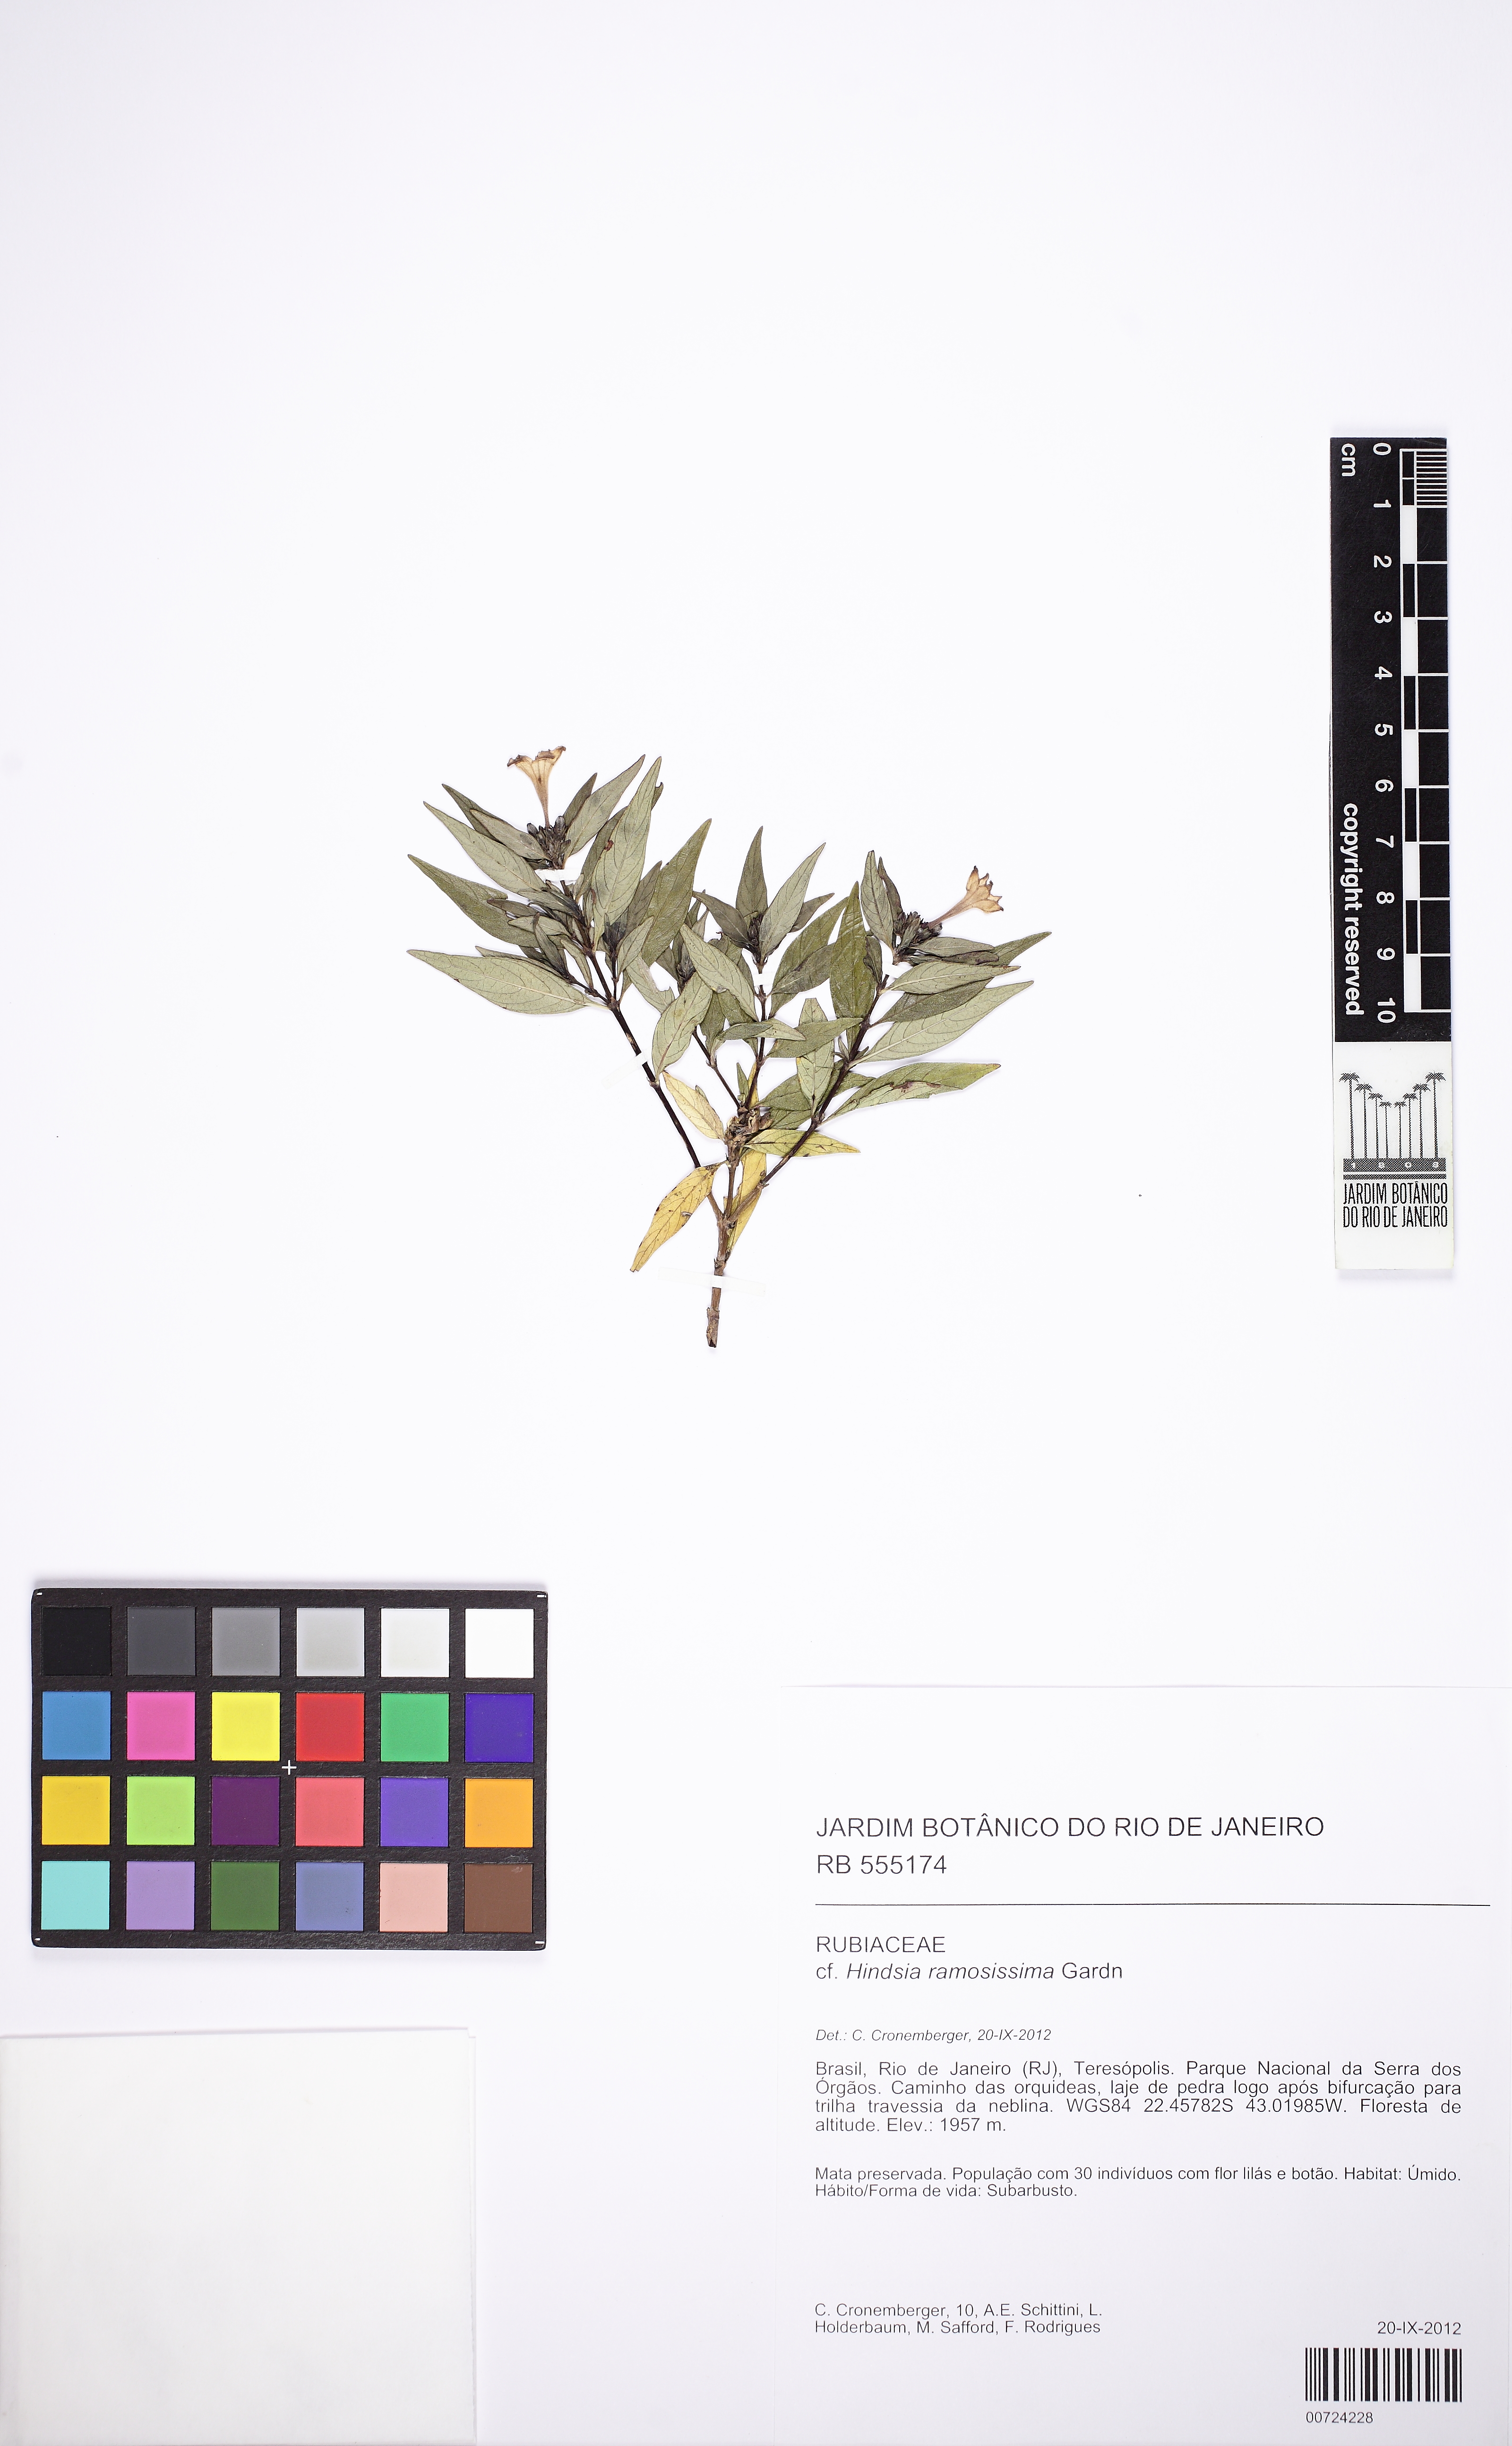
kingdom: Plantae
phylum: Tracheophyta
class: Magnoliopsida
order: Gentianales
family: Rubiaceae
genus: Hindsia
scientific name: Hindsia ramosissima
